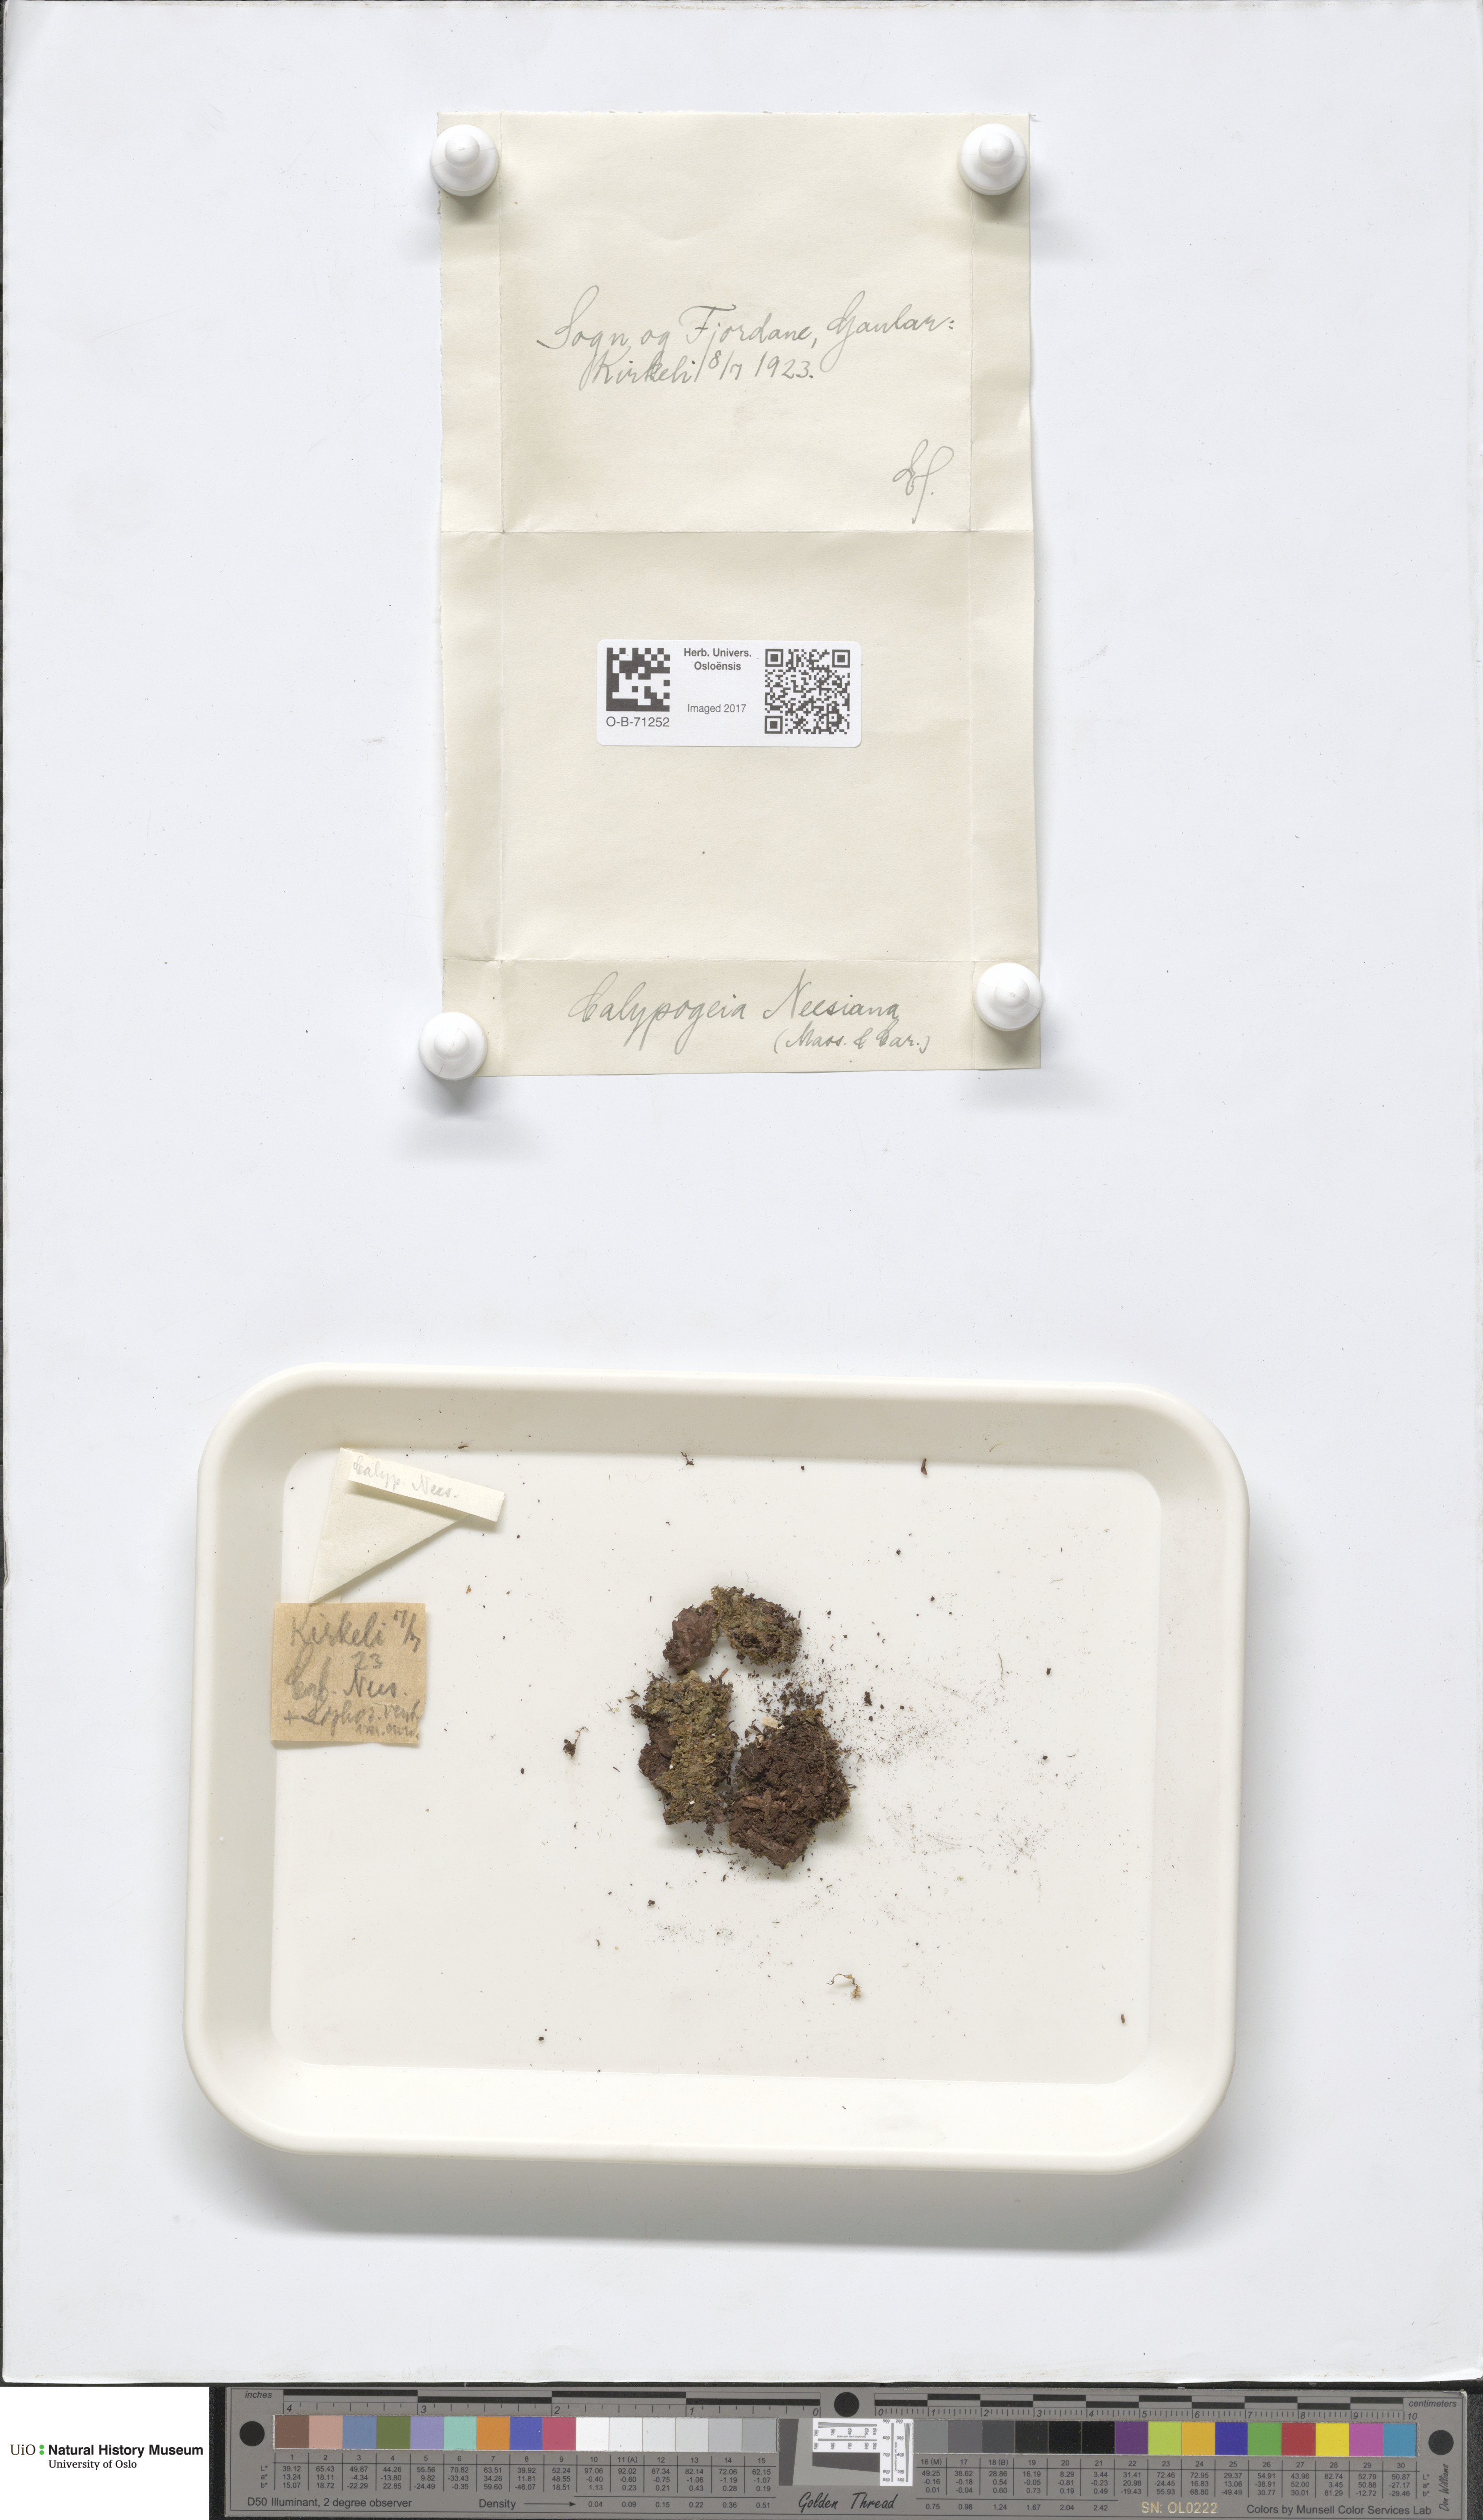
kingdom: Plantae
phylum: Marchantiophyta
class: Jungermanniopsida
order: Jungermanniales
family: Calypogeiaceae
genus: Calypogeia
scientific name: Calypogeia neesiana
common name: Nees  pouchwort
